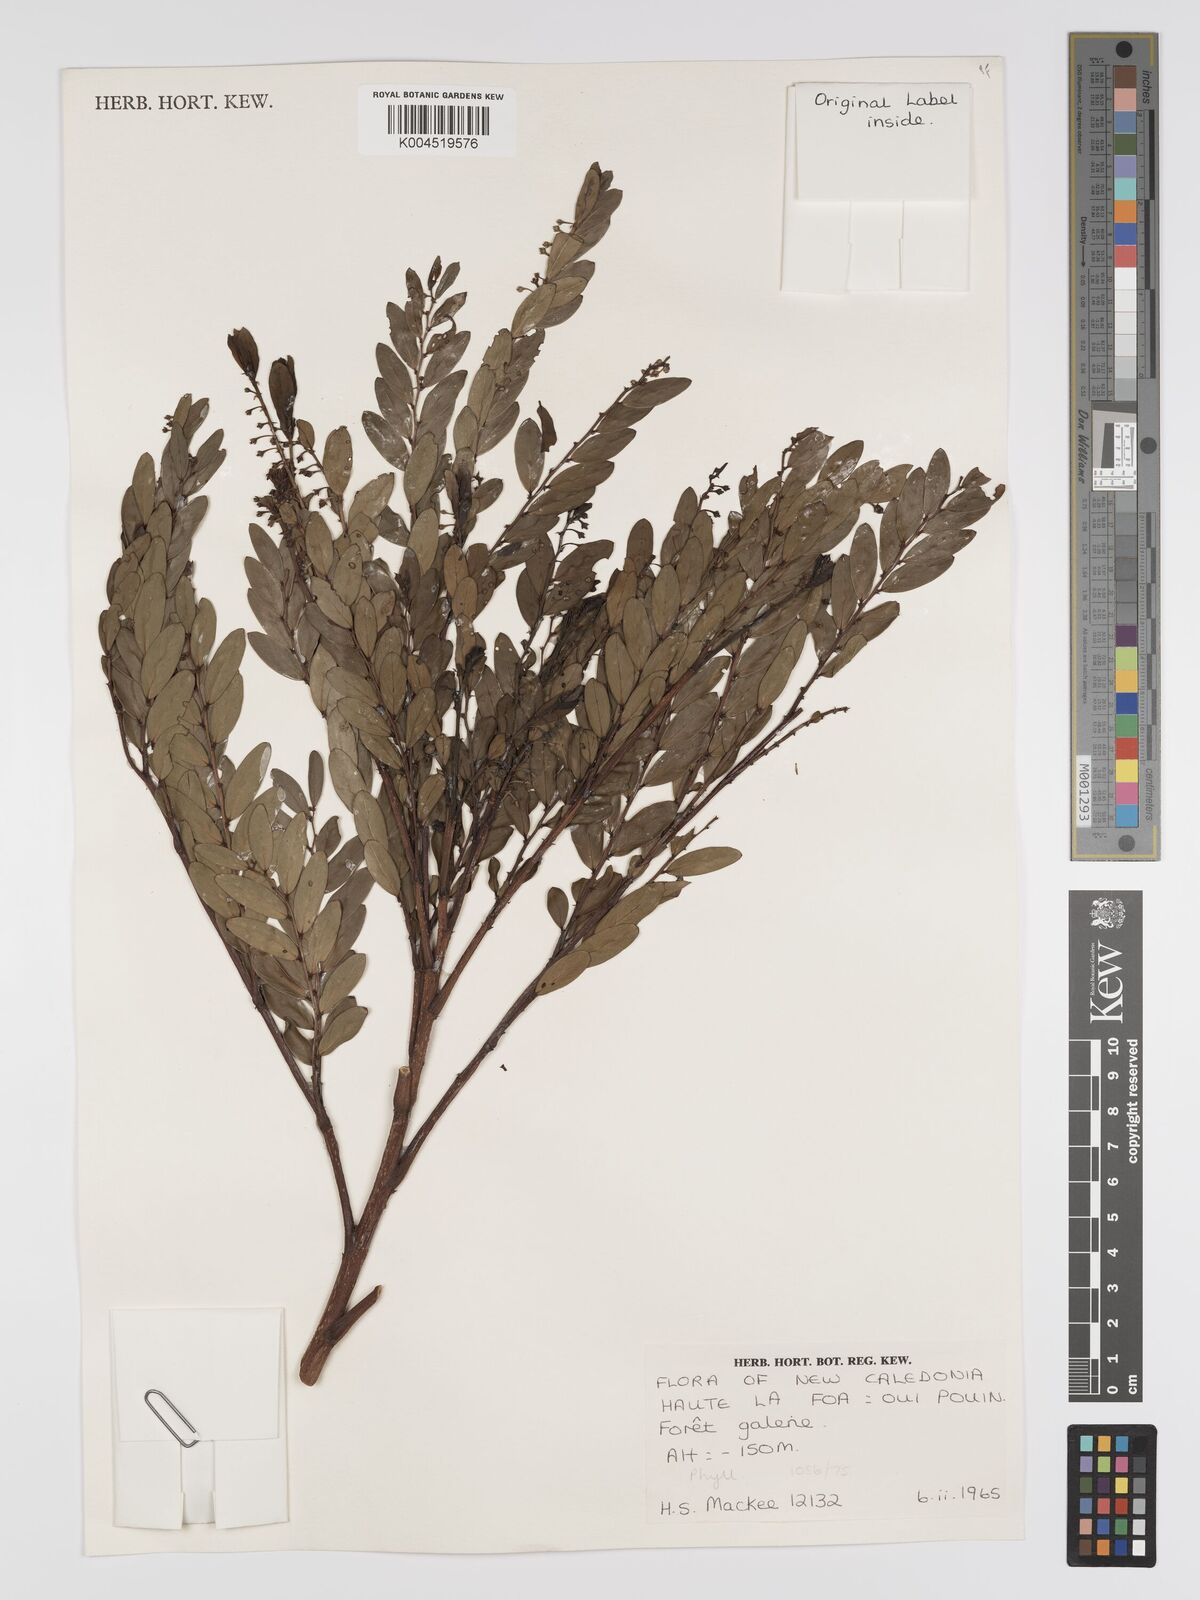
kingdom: Plantae
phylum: Tracheophyta
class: Magnoliopsida
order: Malpighiales
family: Phyllanthaceae
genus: Phyllanthus
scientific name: Phyllanthus bourgeoisii
